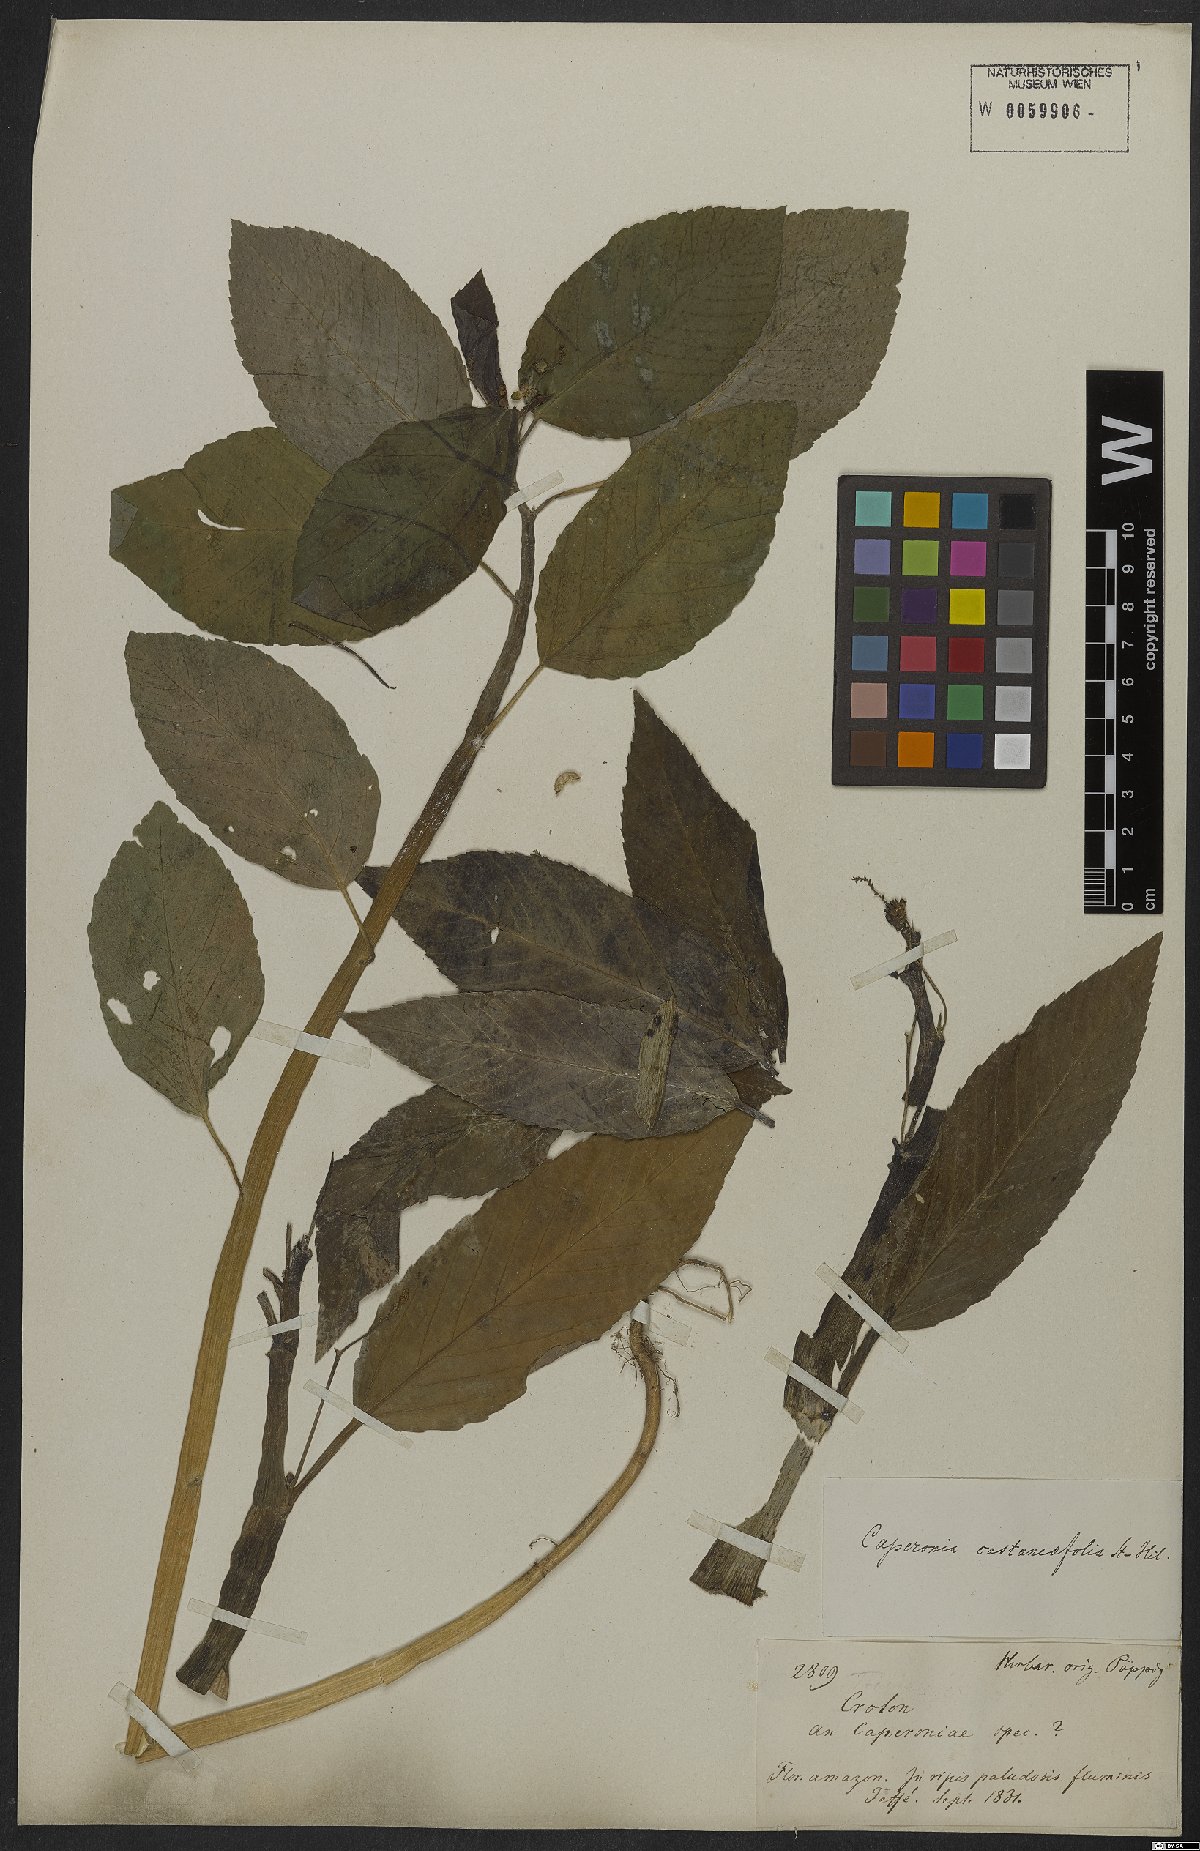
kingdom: Plantae
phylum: Tracheophyta
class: Magnoliopsida
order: Malpighiales
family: Euphorbiaceae
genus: Caperonia
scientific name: Caperonia castaneifolia
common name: Chestnutleaf false croton
